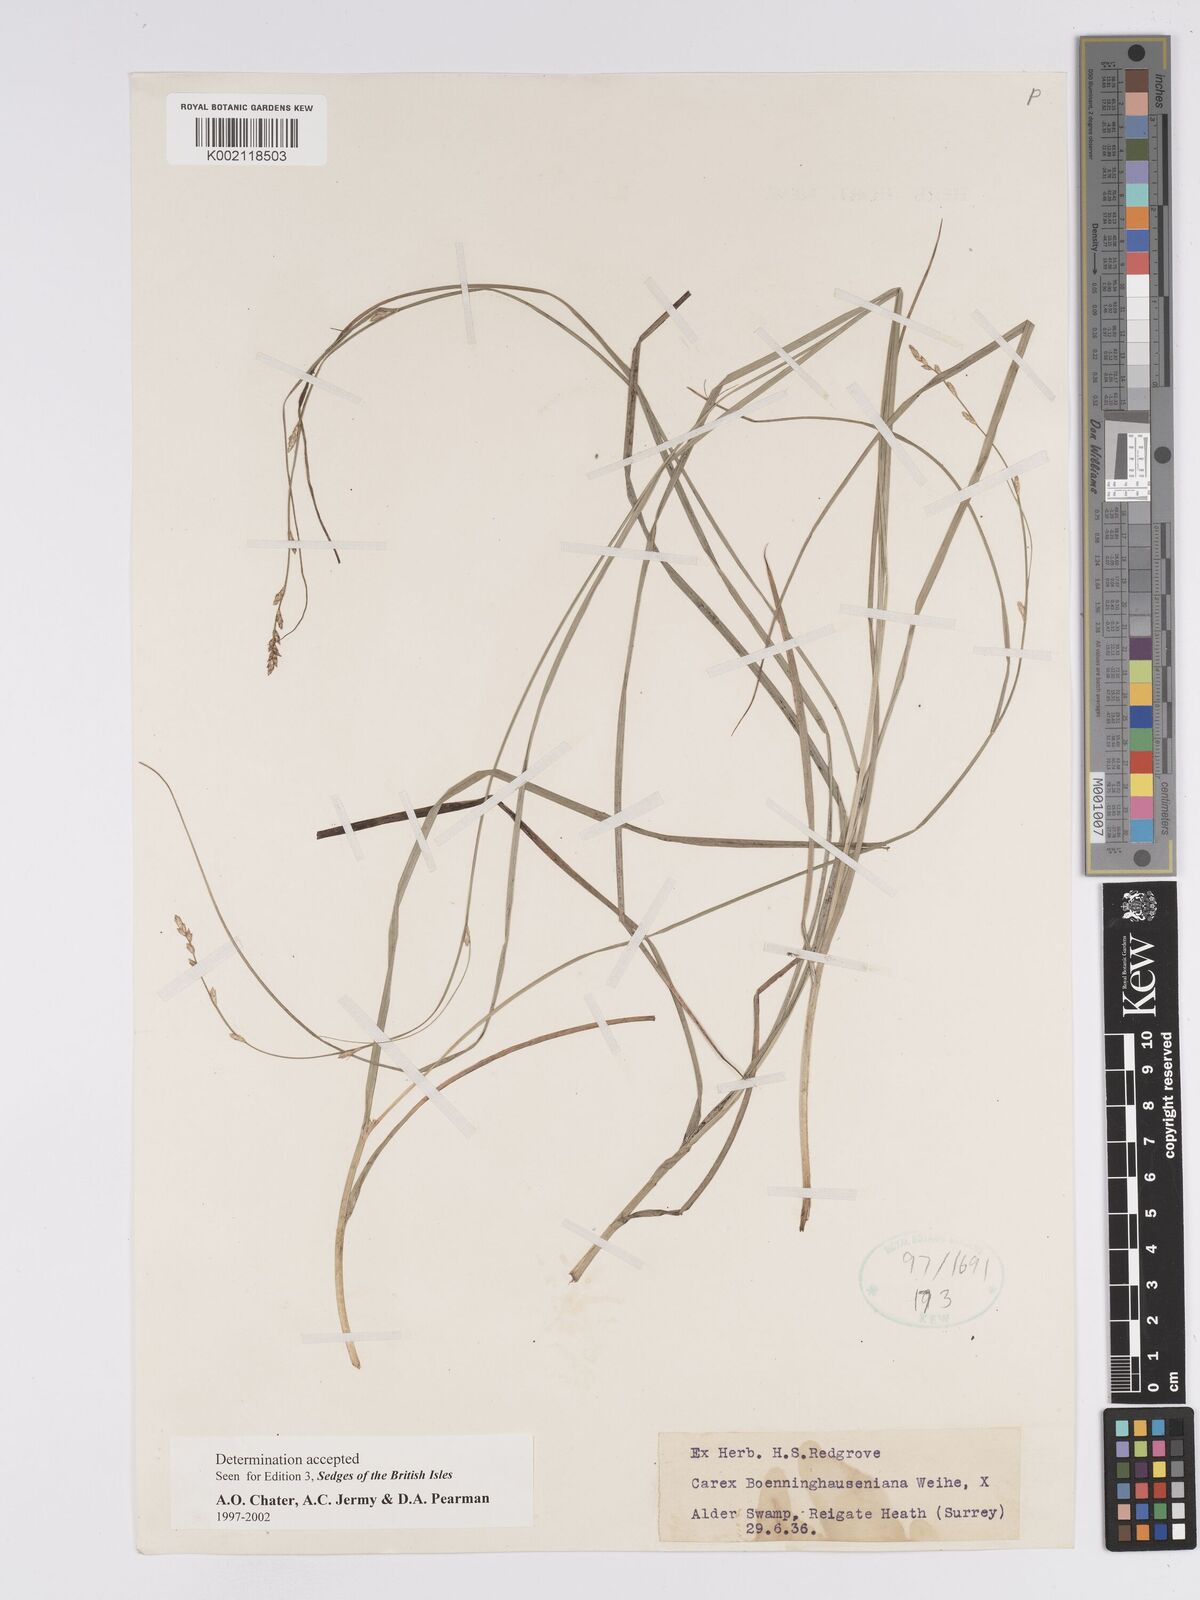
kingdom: Plantae
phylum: Tracheophyta
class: Liliopsida
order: Poales
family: Cyperaceae
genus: Carex
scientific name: Carex boenninghausiana
